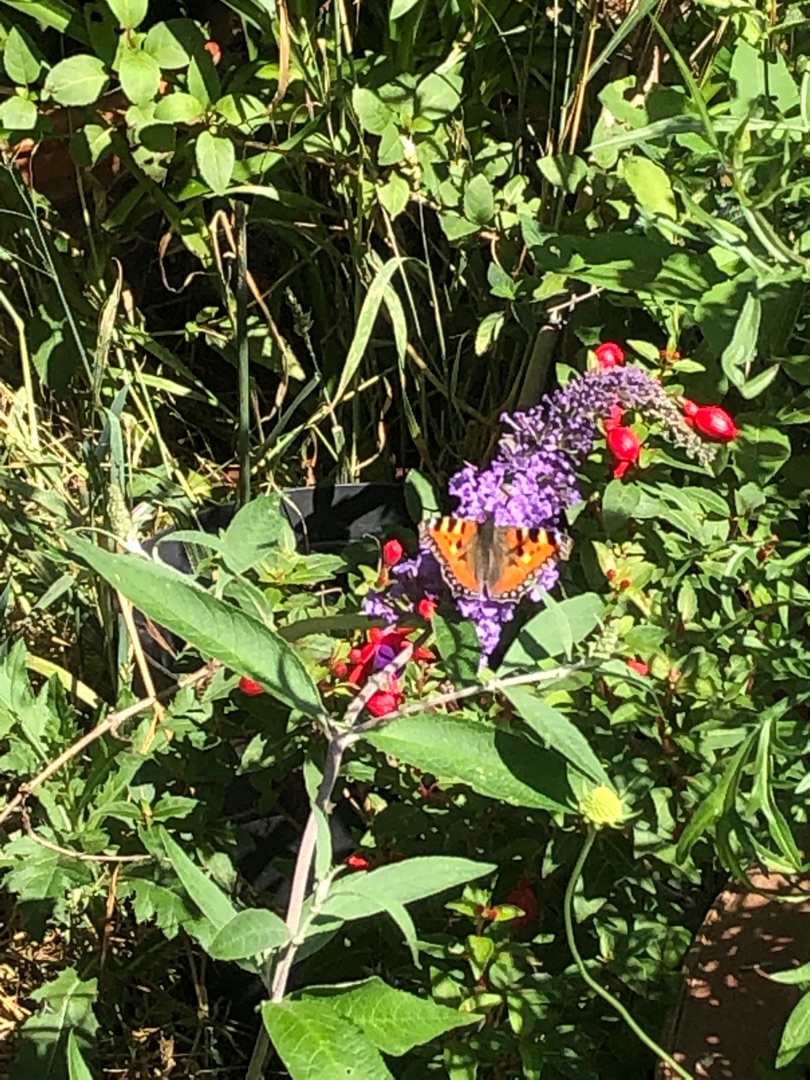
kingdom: Animalia
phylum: Arthropoda
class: Insecta
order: Lepidoptera
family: Nymphalidae
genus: Aglais
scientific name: Aglais urticae
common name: Nældens takvinge
